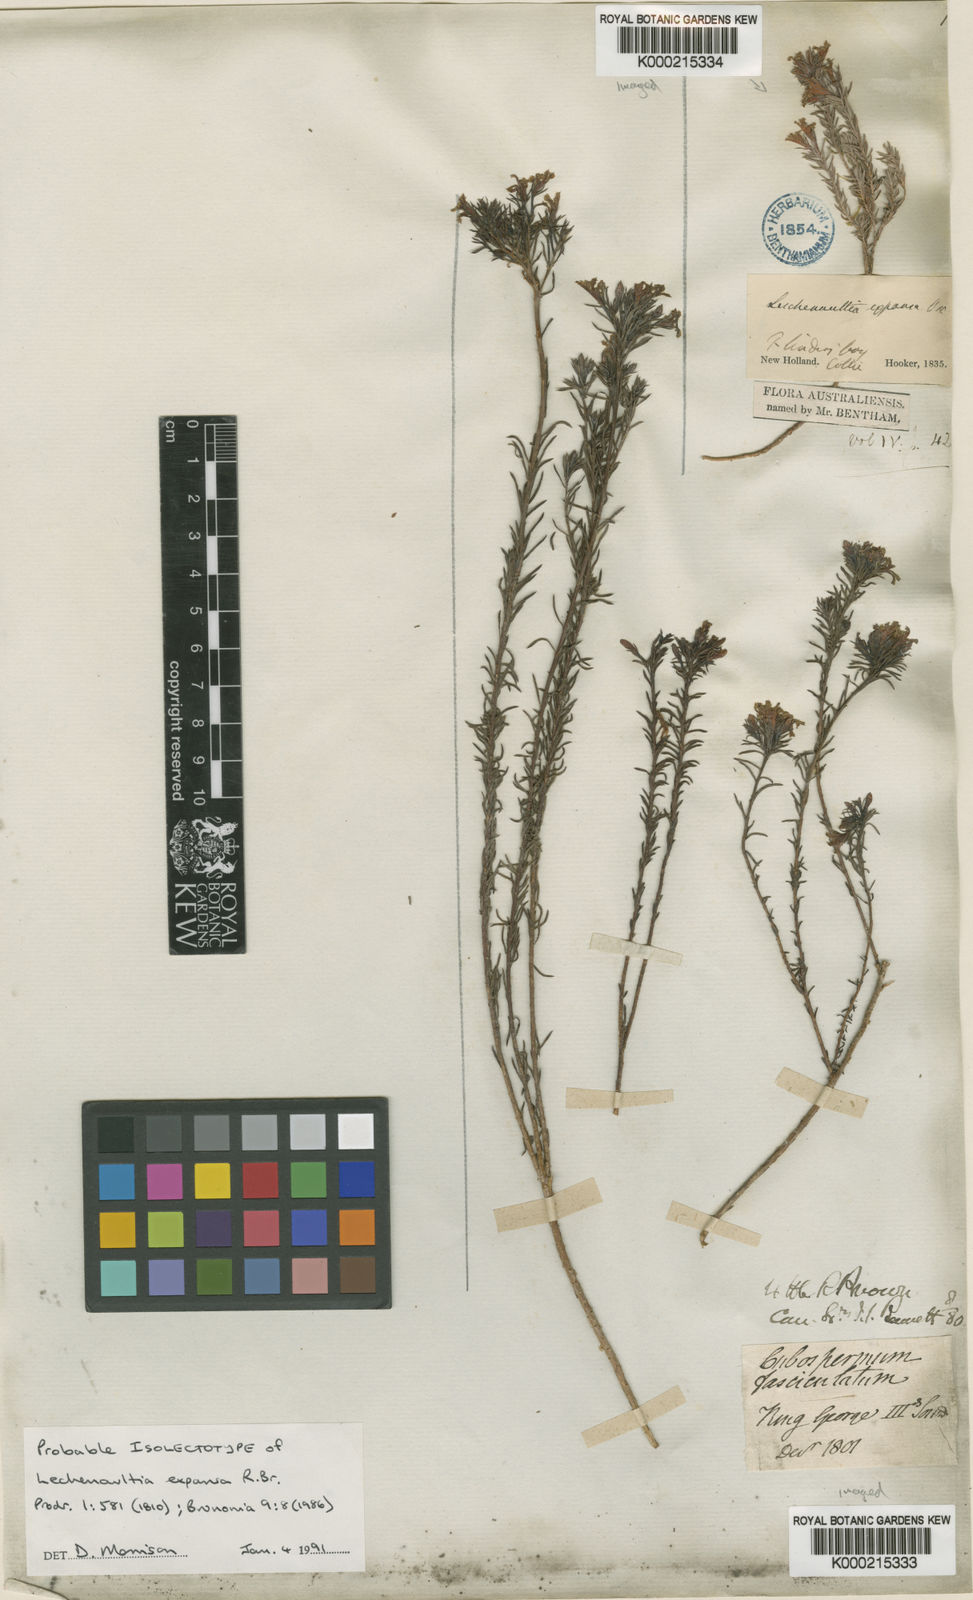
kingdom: Plantae
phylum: Tracheophyta
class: Magnoliopsida
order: Asterales
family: Goodeniaceae
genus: Leschenaultia
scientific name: Leschenaultia expansa
